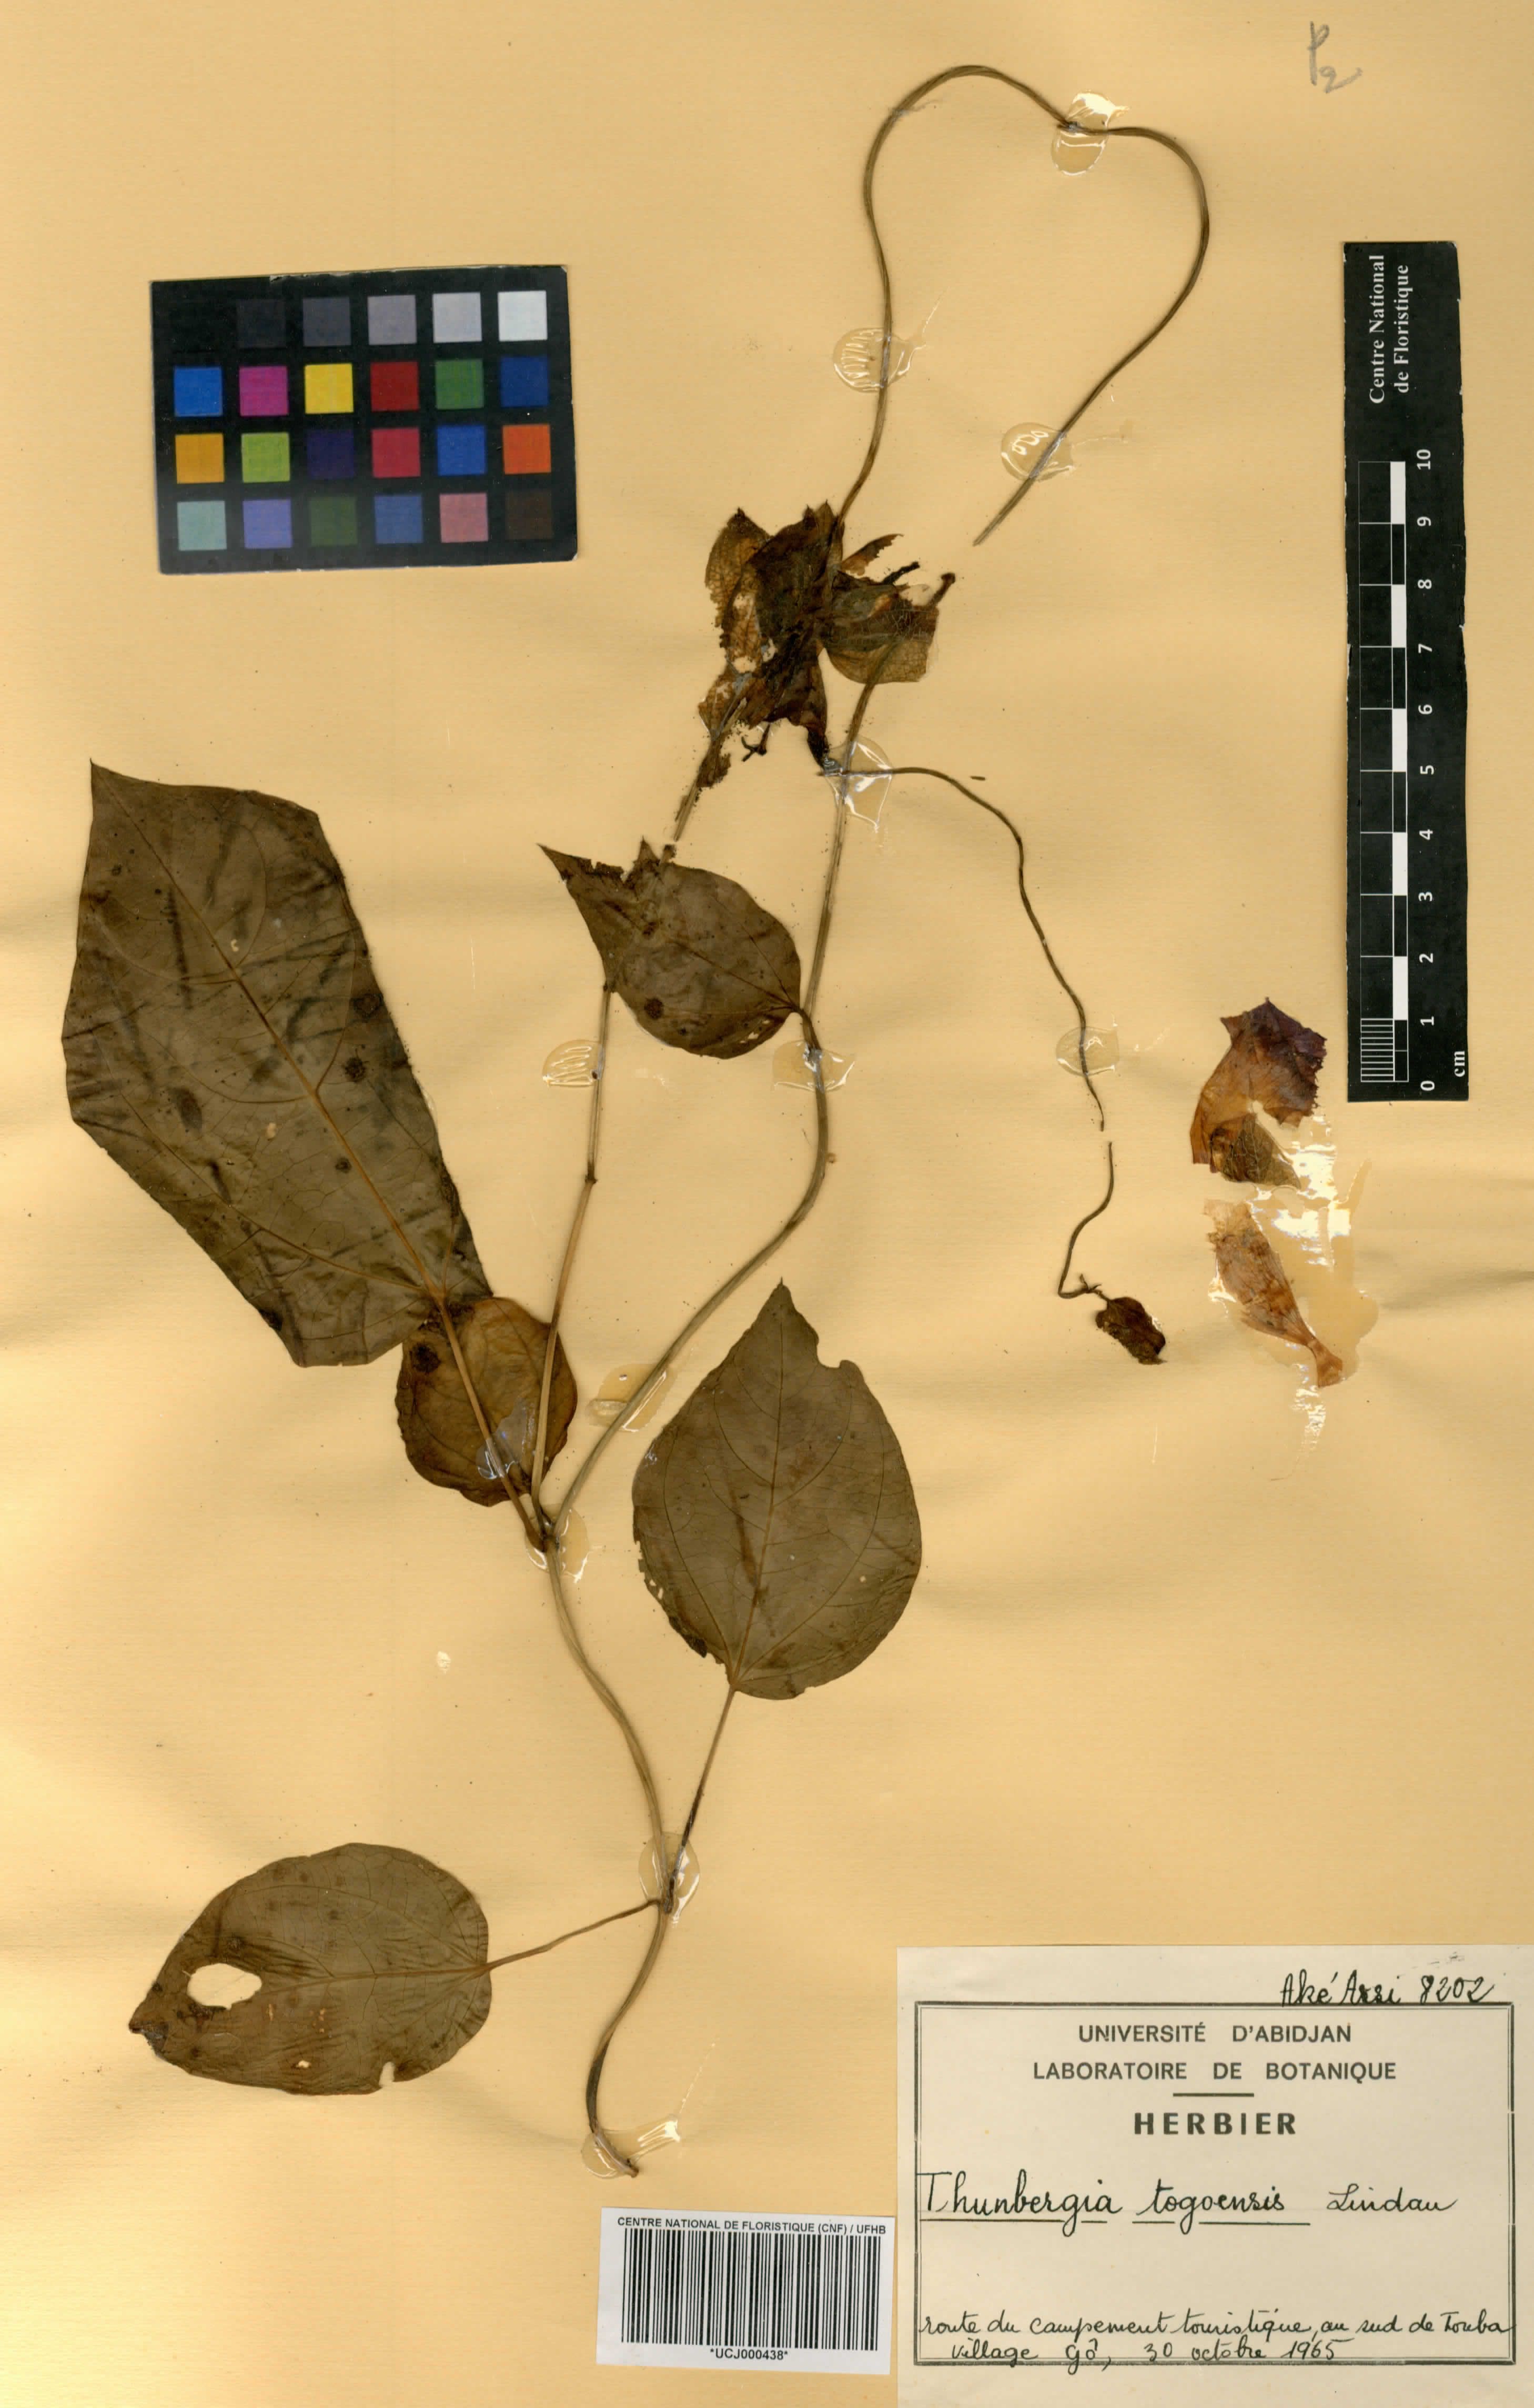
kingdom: Plantae
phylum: Tracheophyta
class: Magnoliopsida
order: Lamiales
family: Acanthaceae
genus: Thunbergia
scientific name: Thunbergia togoensis
